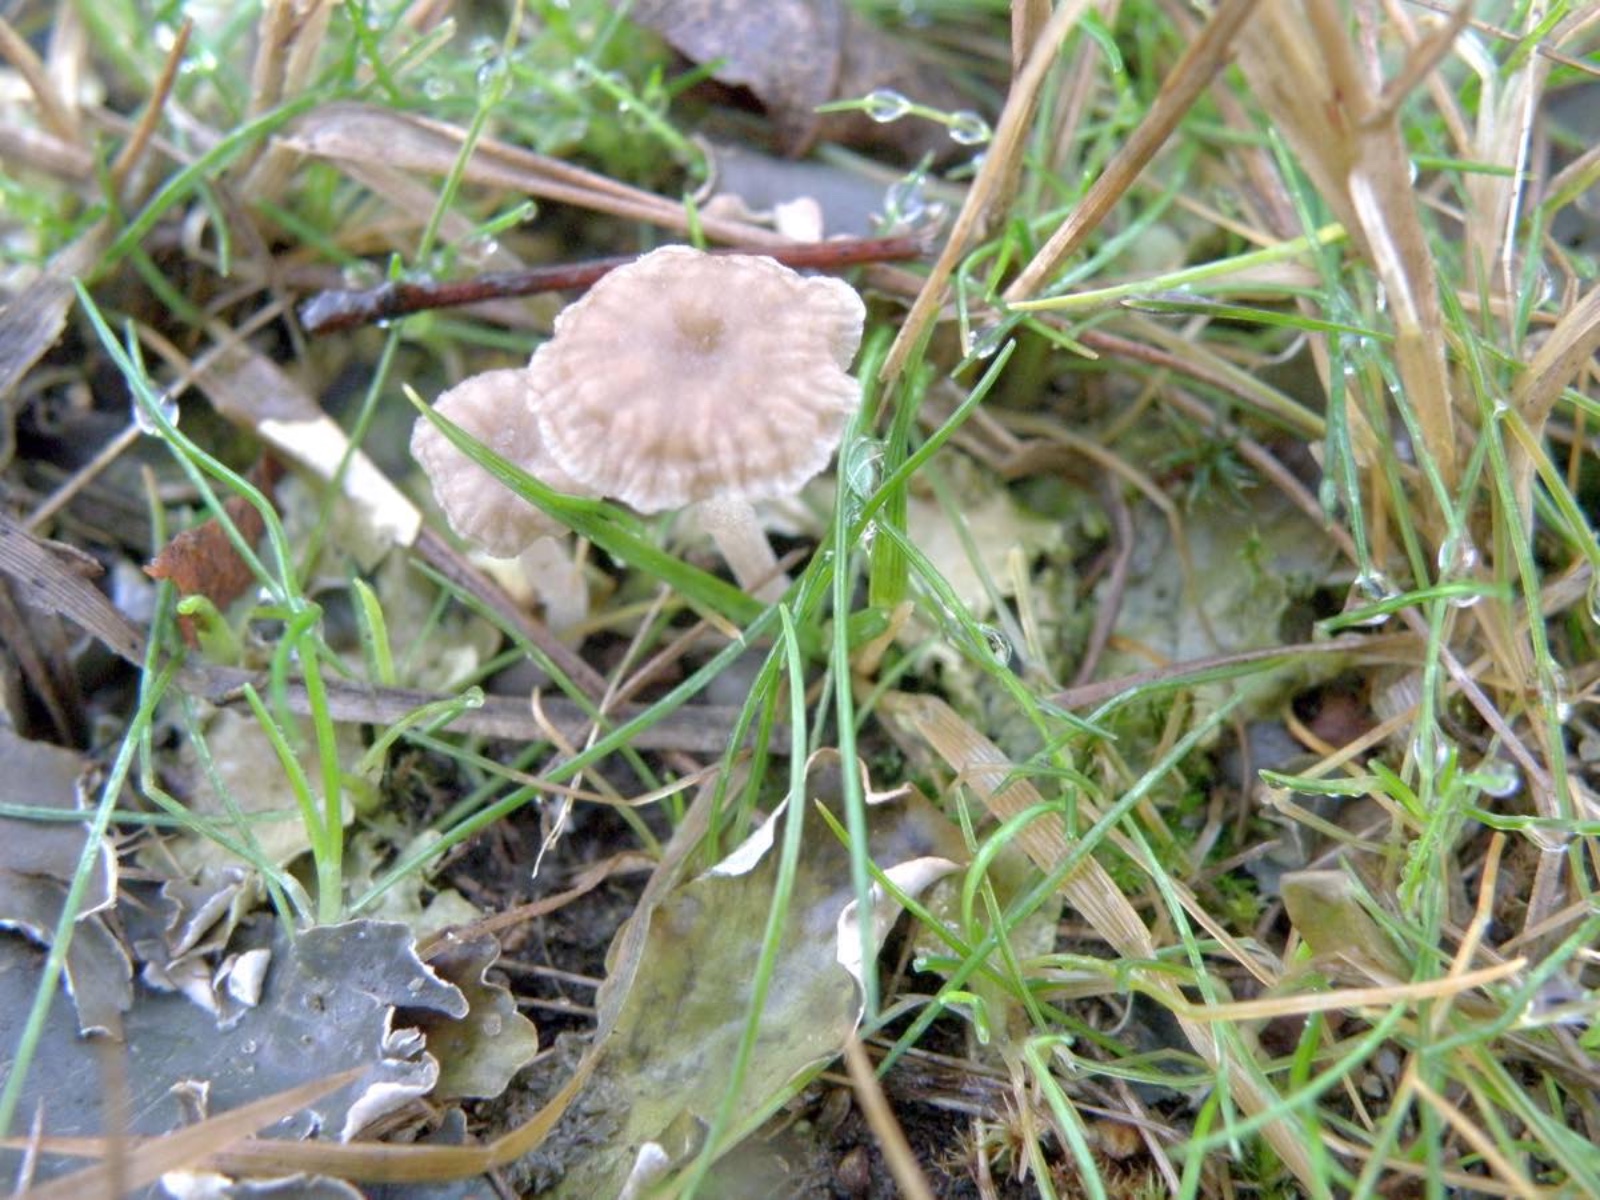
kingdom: Fungi
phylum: Basidiomycota
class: Agaricomycetes
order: Agaricales
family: Hygrophoraceae
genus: Arrhenia
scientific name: Arrhenia peltigerina
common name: skjoldlav-fontænehat
